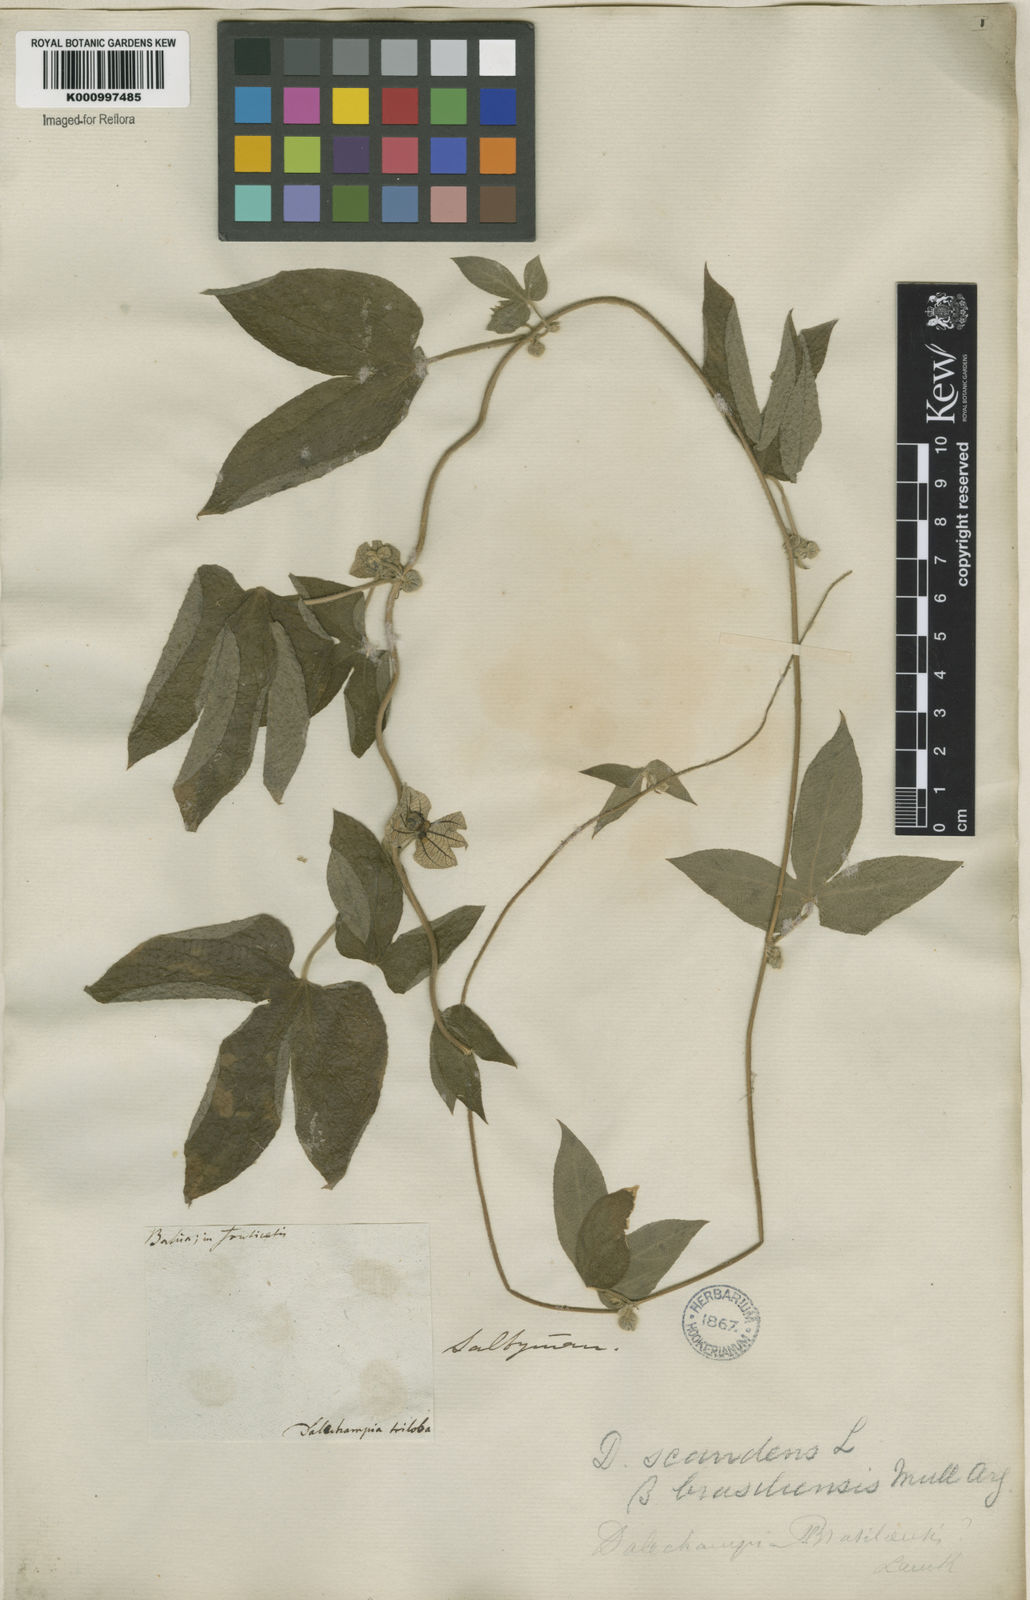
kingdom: Plantae
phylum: Tracheophyta
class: Magnoliopsida
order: Malpighiales
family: Euphorbiaceae
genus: Dalechampia
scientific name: Dalechampia brasiliensis
